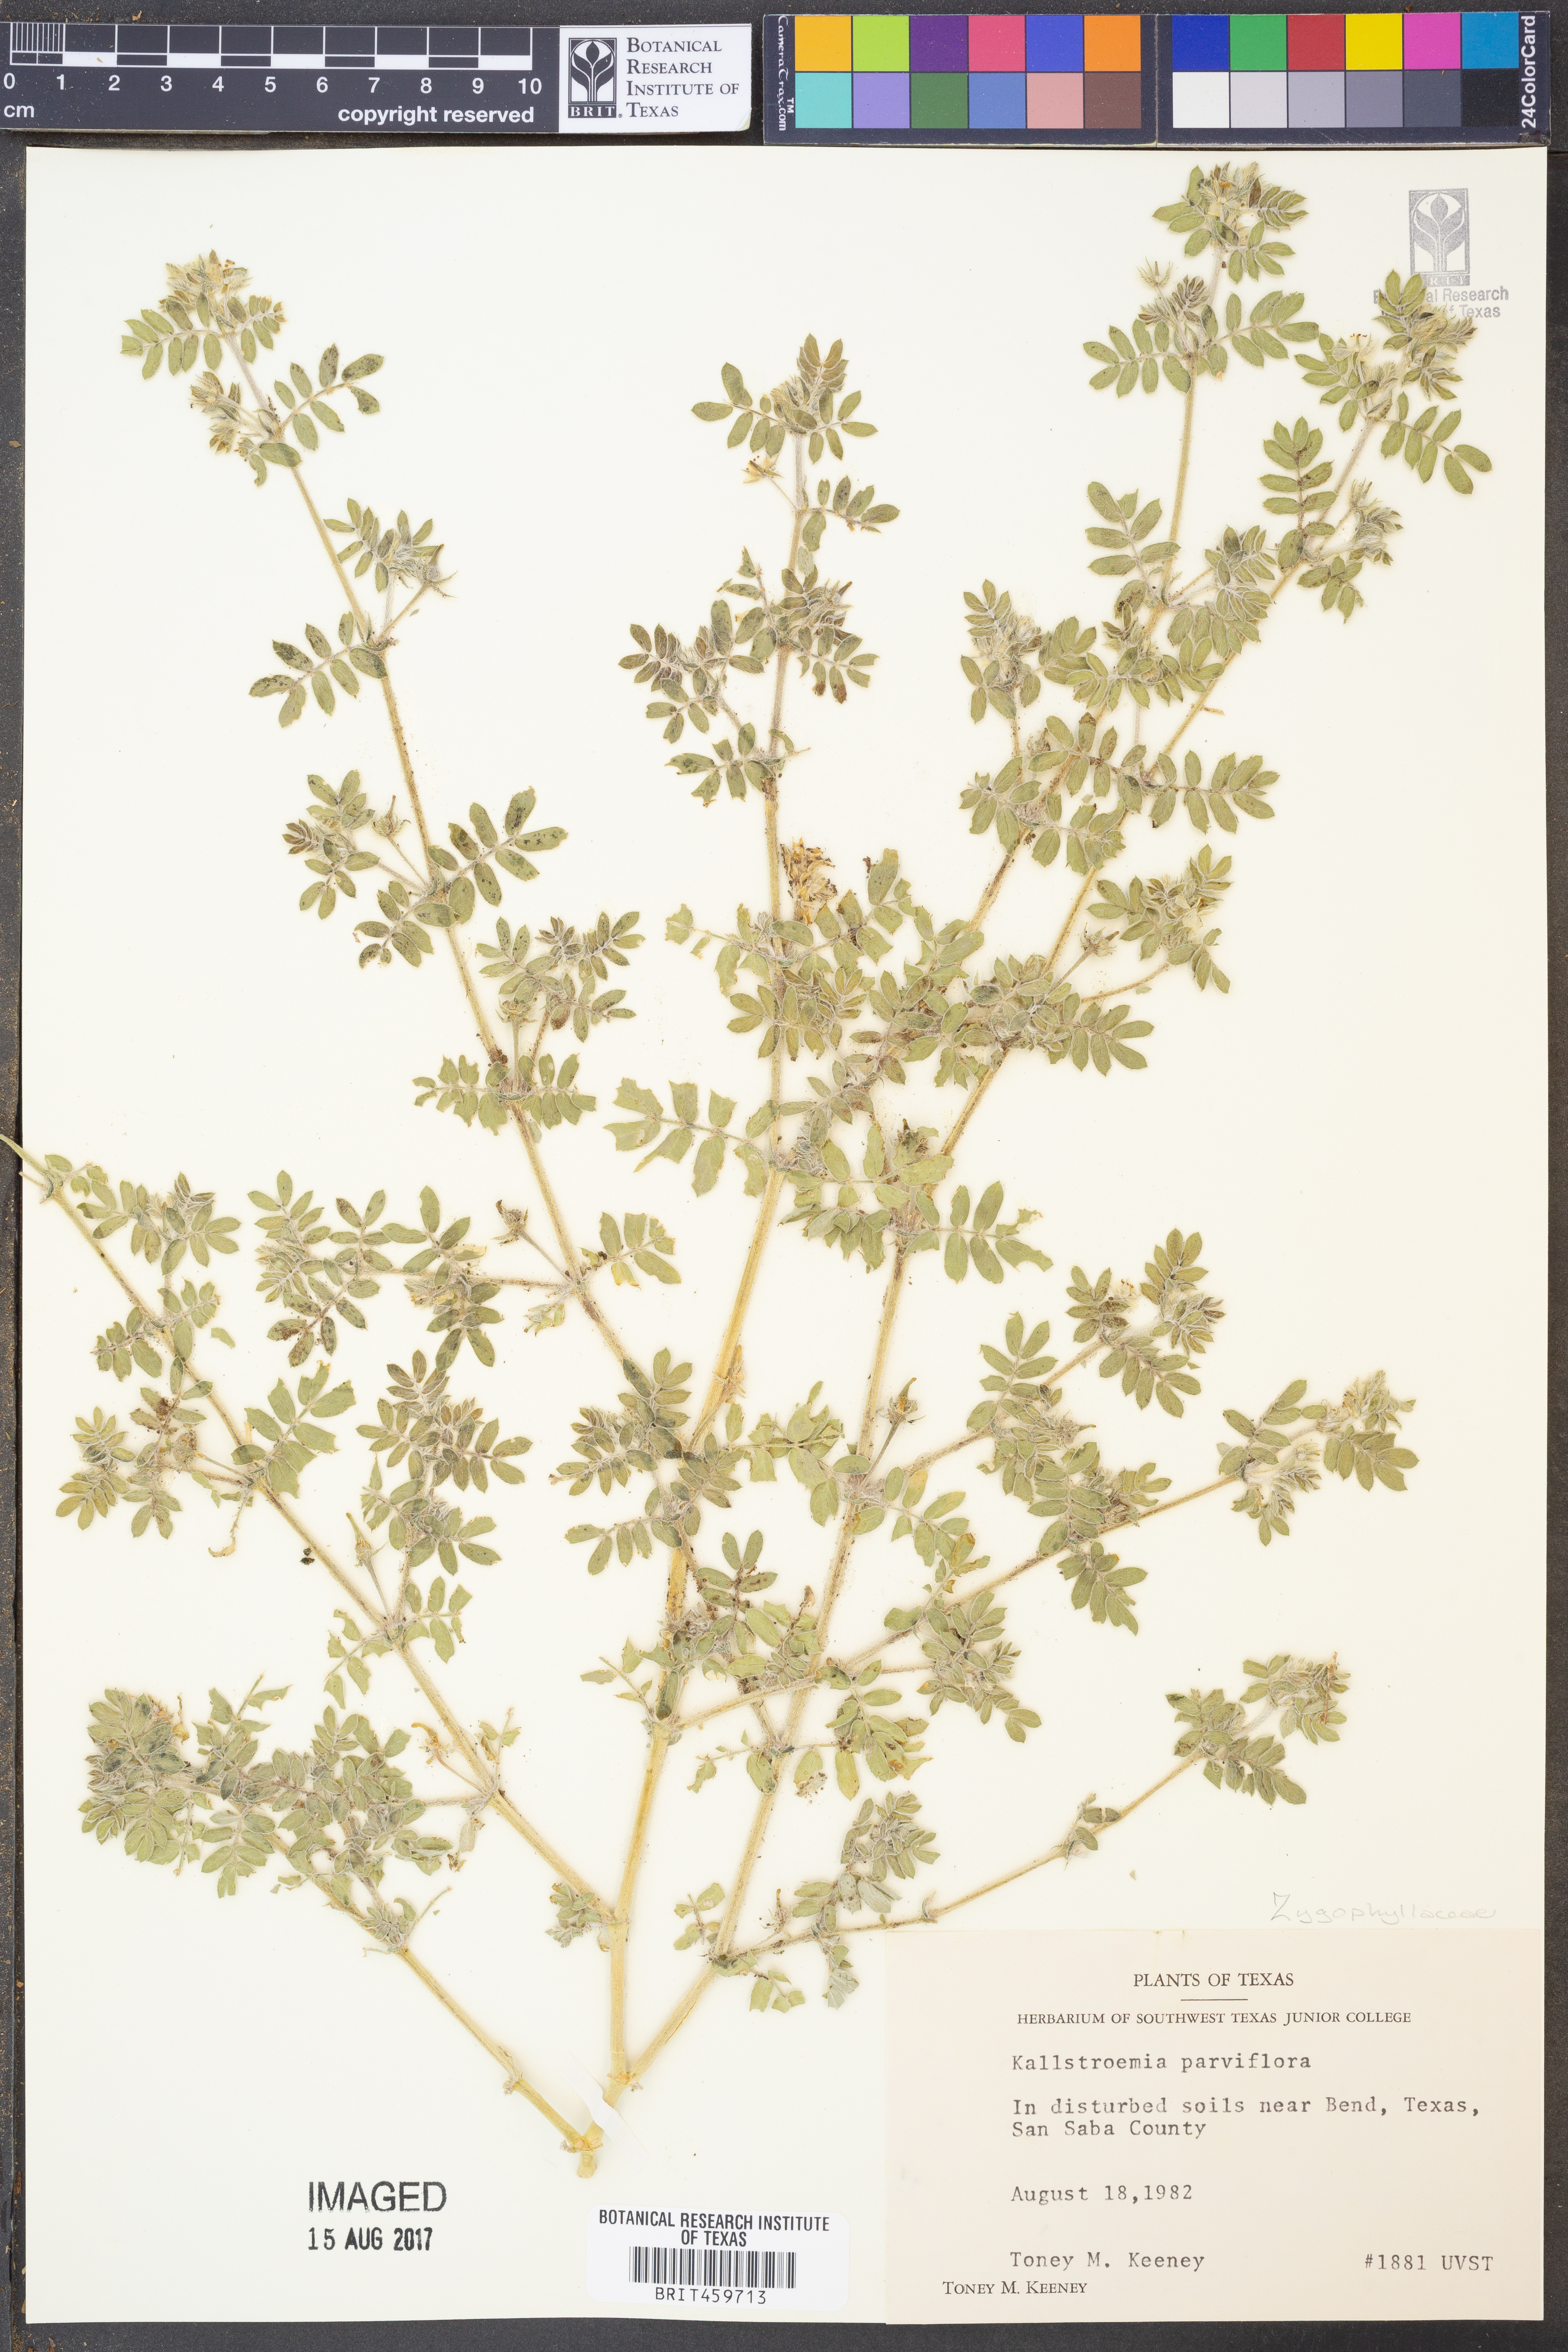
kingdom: Plantae
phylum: Tracheophyta
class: Magnoliopsida
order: Zygophyllales
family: Zygophyllaceae
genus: Kallstroemia
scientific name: Kallstroemia parviflora
